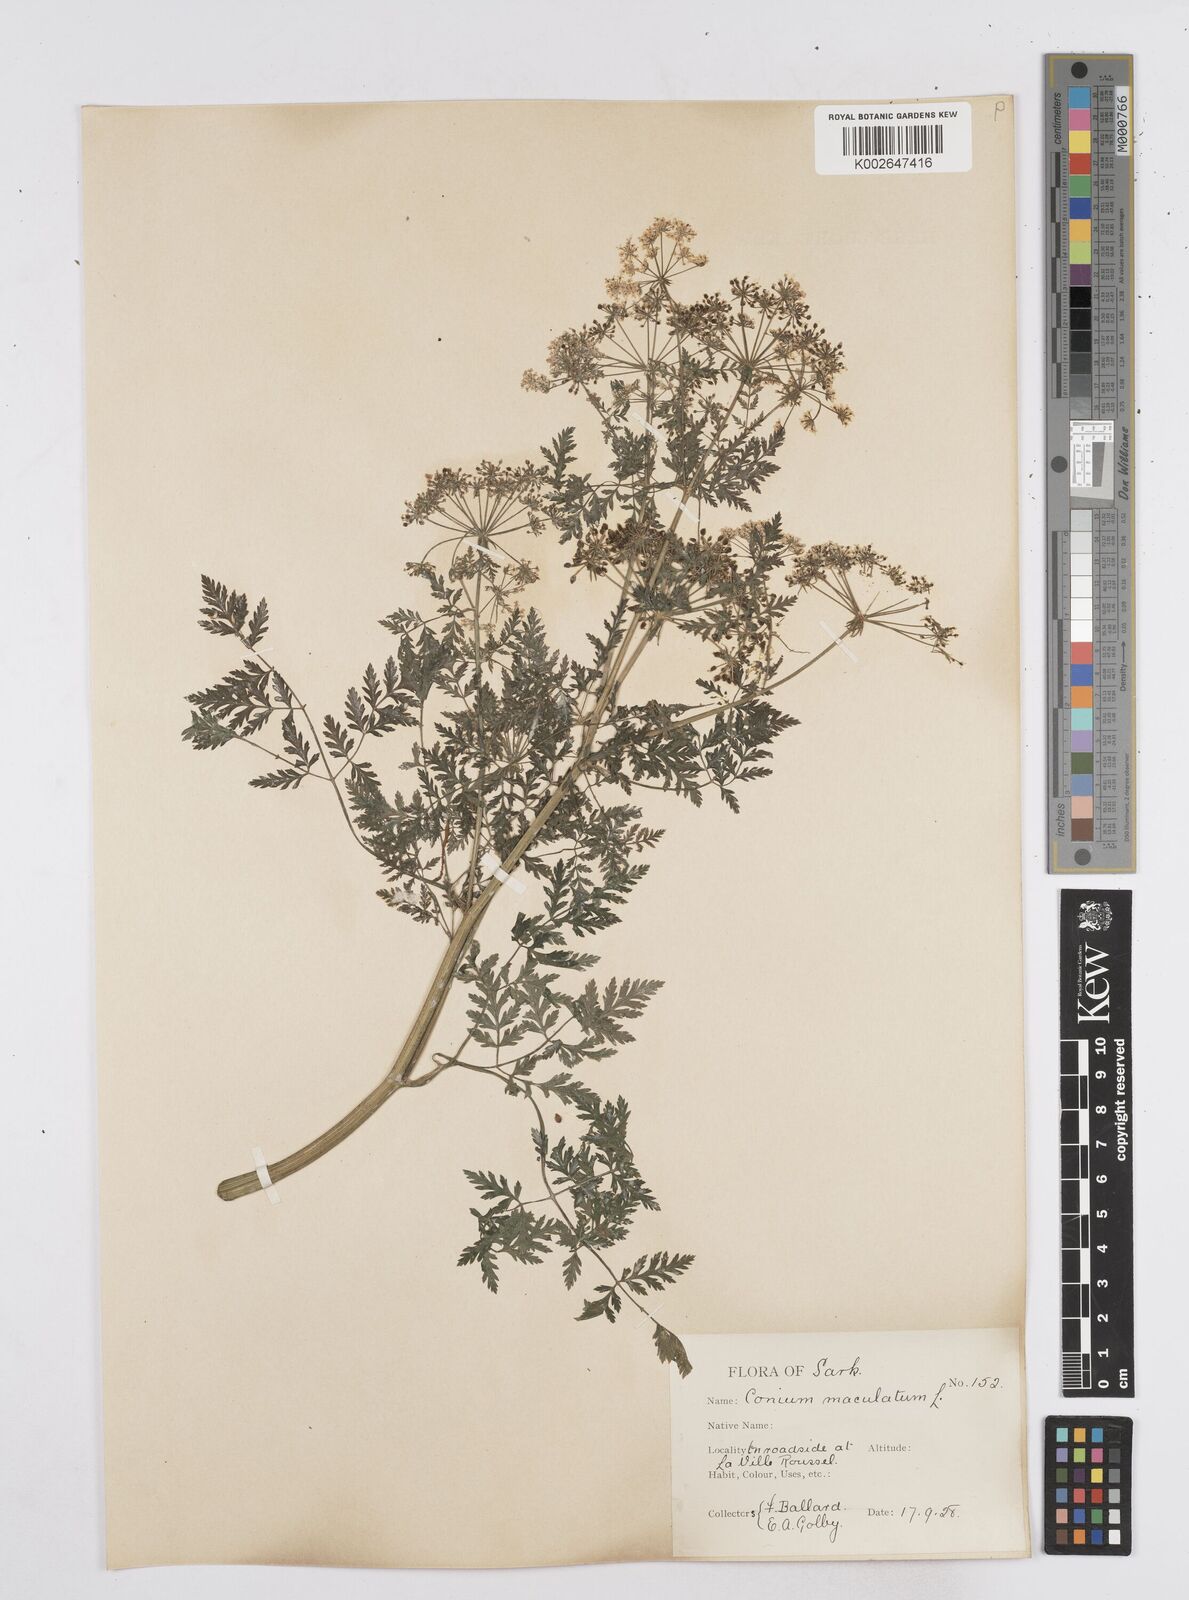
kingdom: Plantae
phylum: Tracheophyta
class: Magnoliopsida
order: Apiales
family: Apiaceae
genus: Conium
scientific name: Conium maculatum
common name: Hemlock
